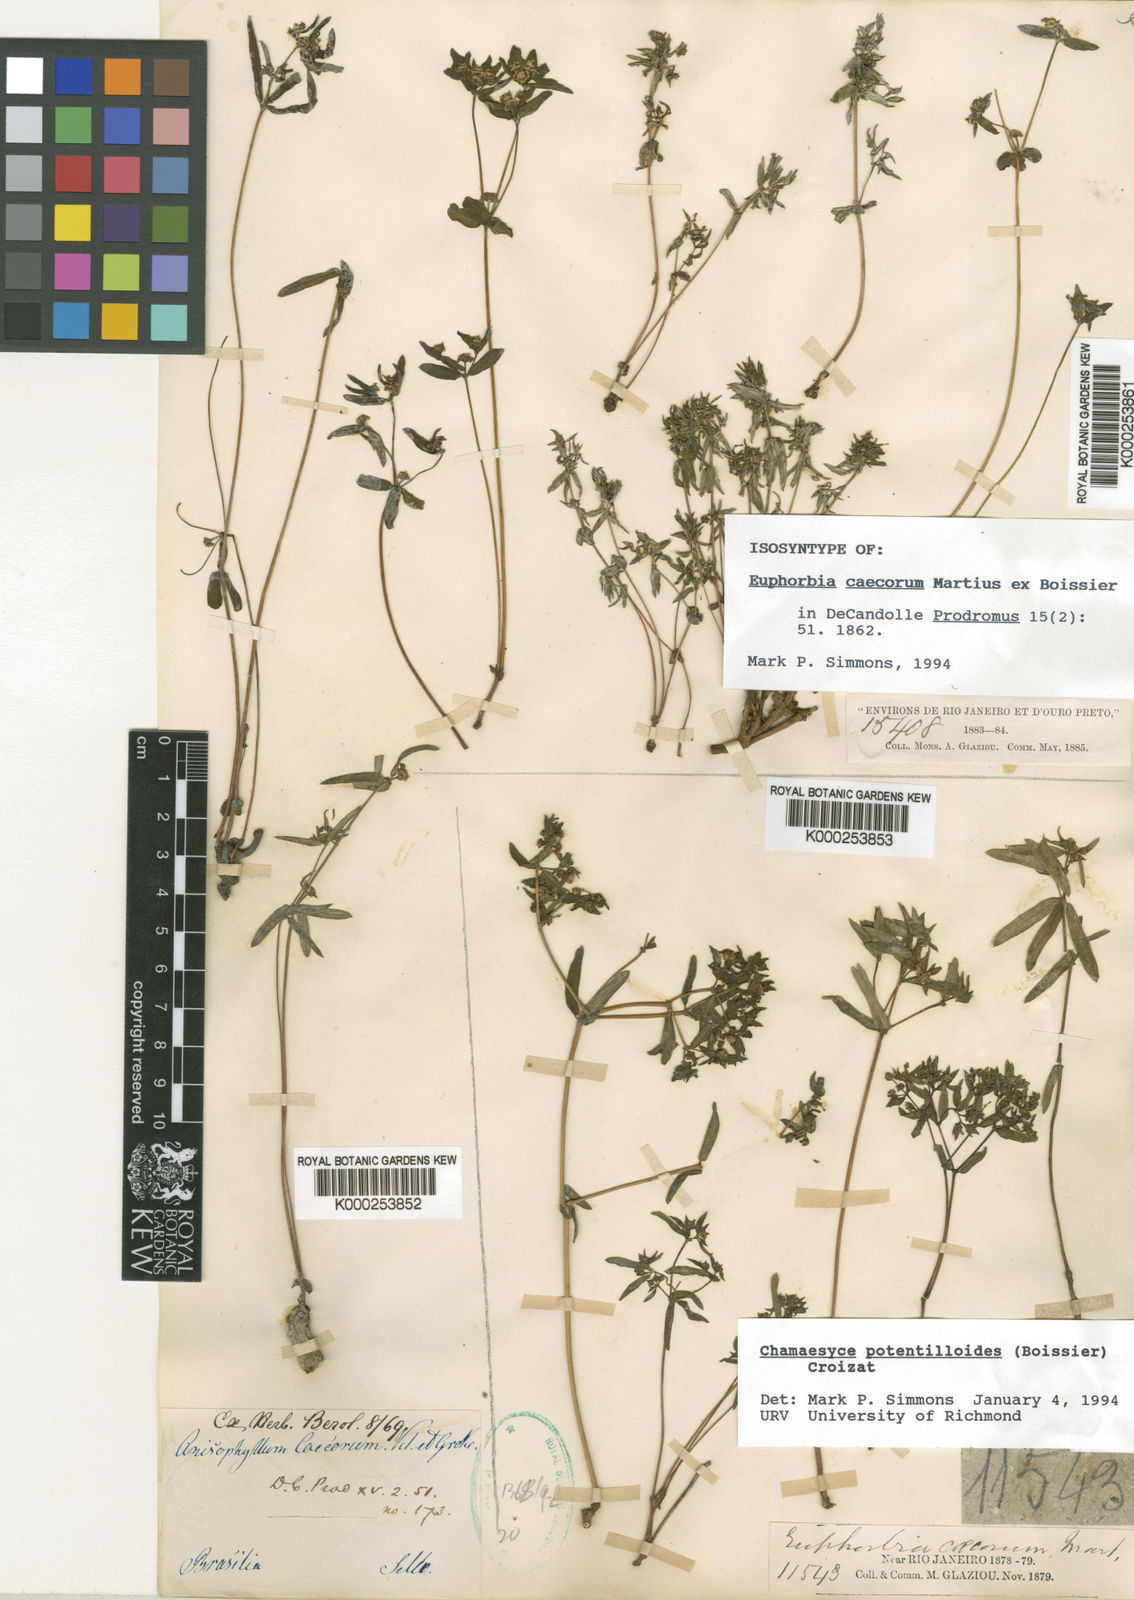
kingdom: Plantae
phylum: Tracheophyta
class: Magnoliopsida
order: Malpighiales
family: Euphorbiaceae
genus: Euphorbia
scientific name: Euphorbia potentilloides
